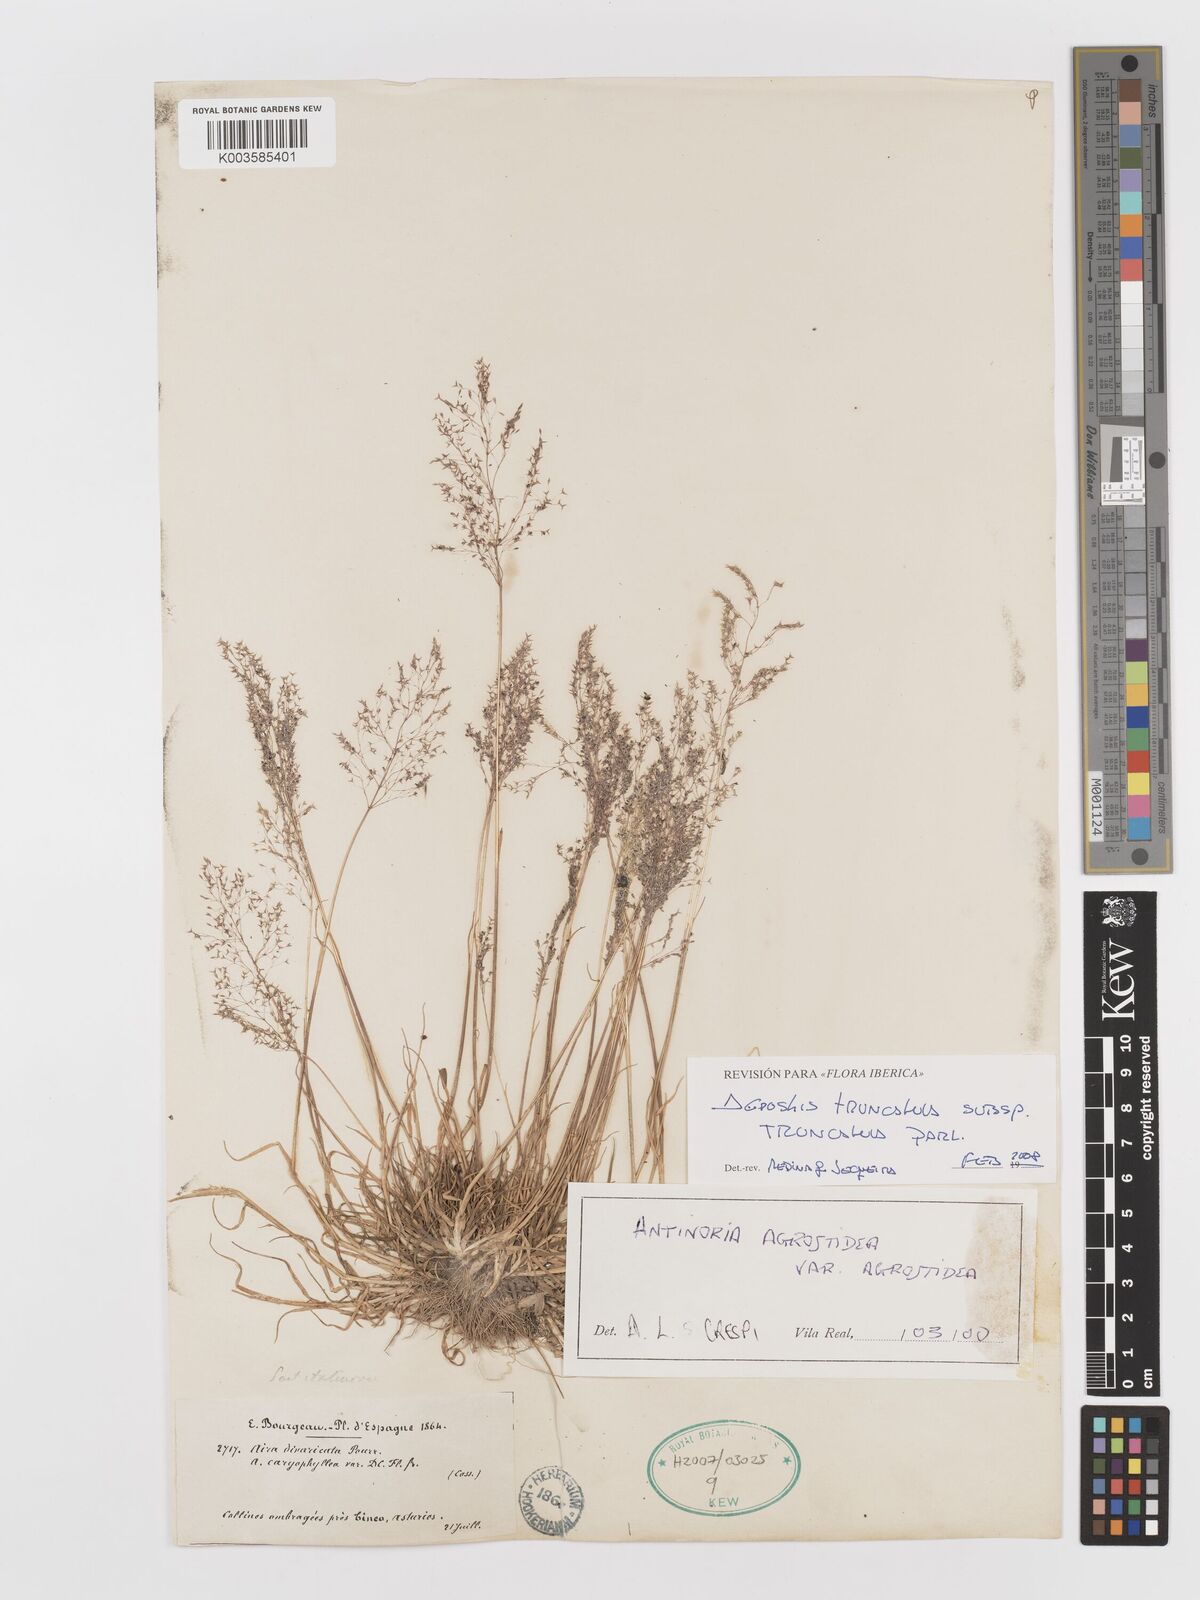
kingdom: Plantae
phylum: Tracheophyta
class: Liliopsida
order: Poales
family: Poaceae
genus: Antinoria
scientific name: Antinoria agrostidea
